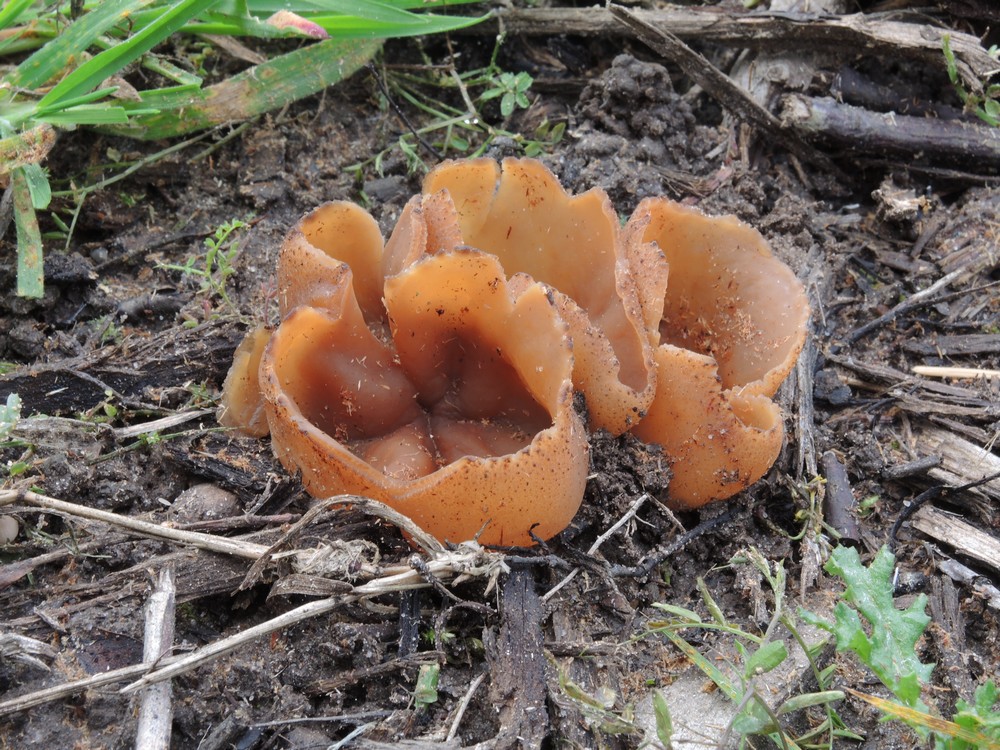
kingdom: Fungi
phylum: Ascomycota
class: Pezizomycetes
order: Pezizales
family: Pezizaceae
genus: Peziza
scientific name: Peziza vesiculosa
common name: blære-bægersvamp
